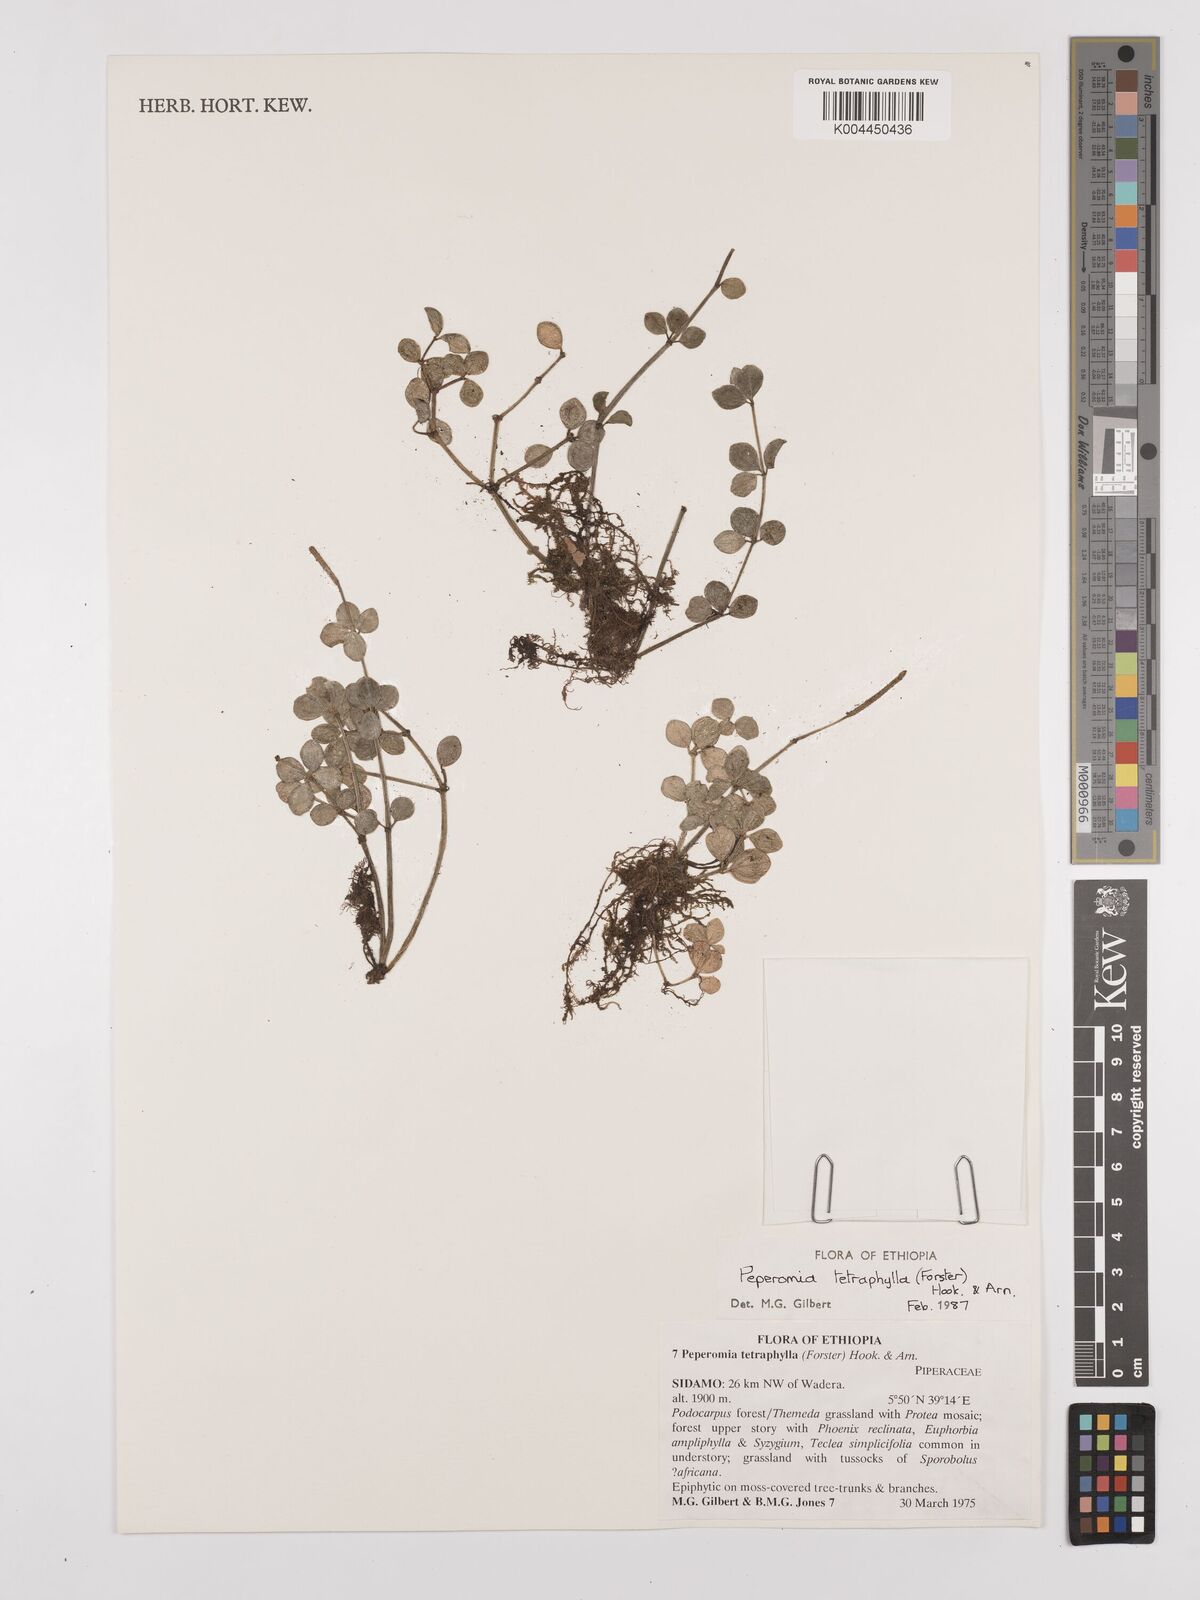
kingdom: Plantae
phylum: Tracheophyta
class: Magnoliopsida
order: Piperales
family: Piperaceae
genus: Peperomia
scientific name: Peperomia tetraphylla
